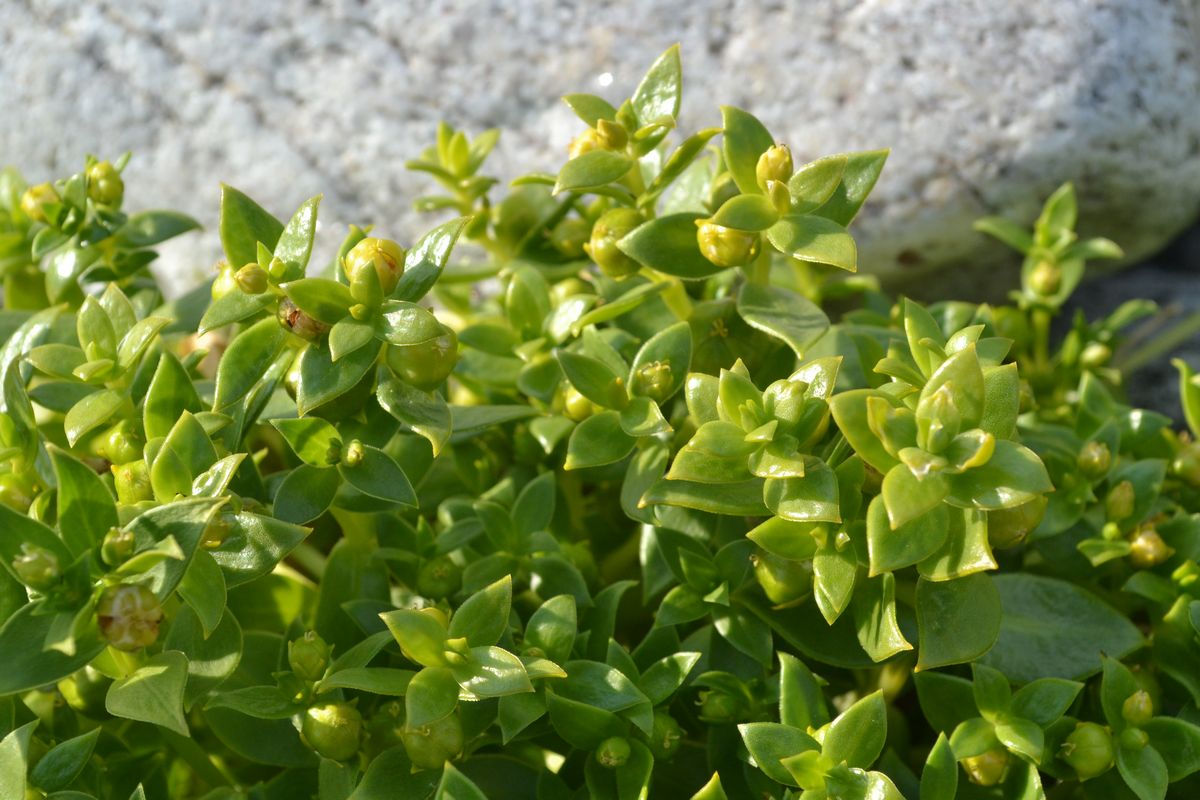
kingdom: Plantae
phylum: Tracheophyta
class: Magnoliopsida
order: Caryophyllales
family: Caryophyllaceae
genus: Honckenya
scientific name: Honckenya peploides
